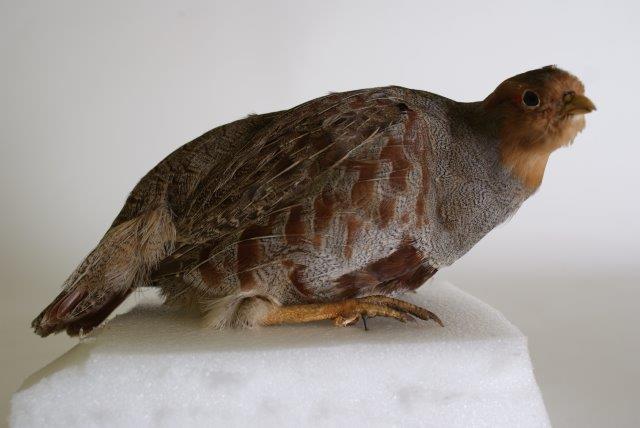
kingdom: Animalia
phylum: Chordata
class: Aves
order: Galliformes
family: Phasianidae
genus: Perdix
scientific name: Perdix perdix
